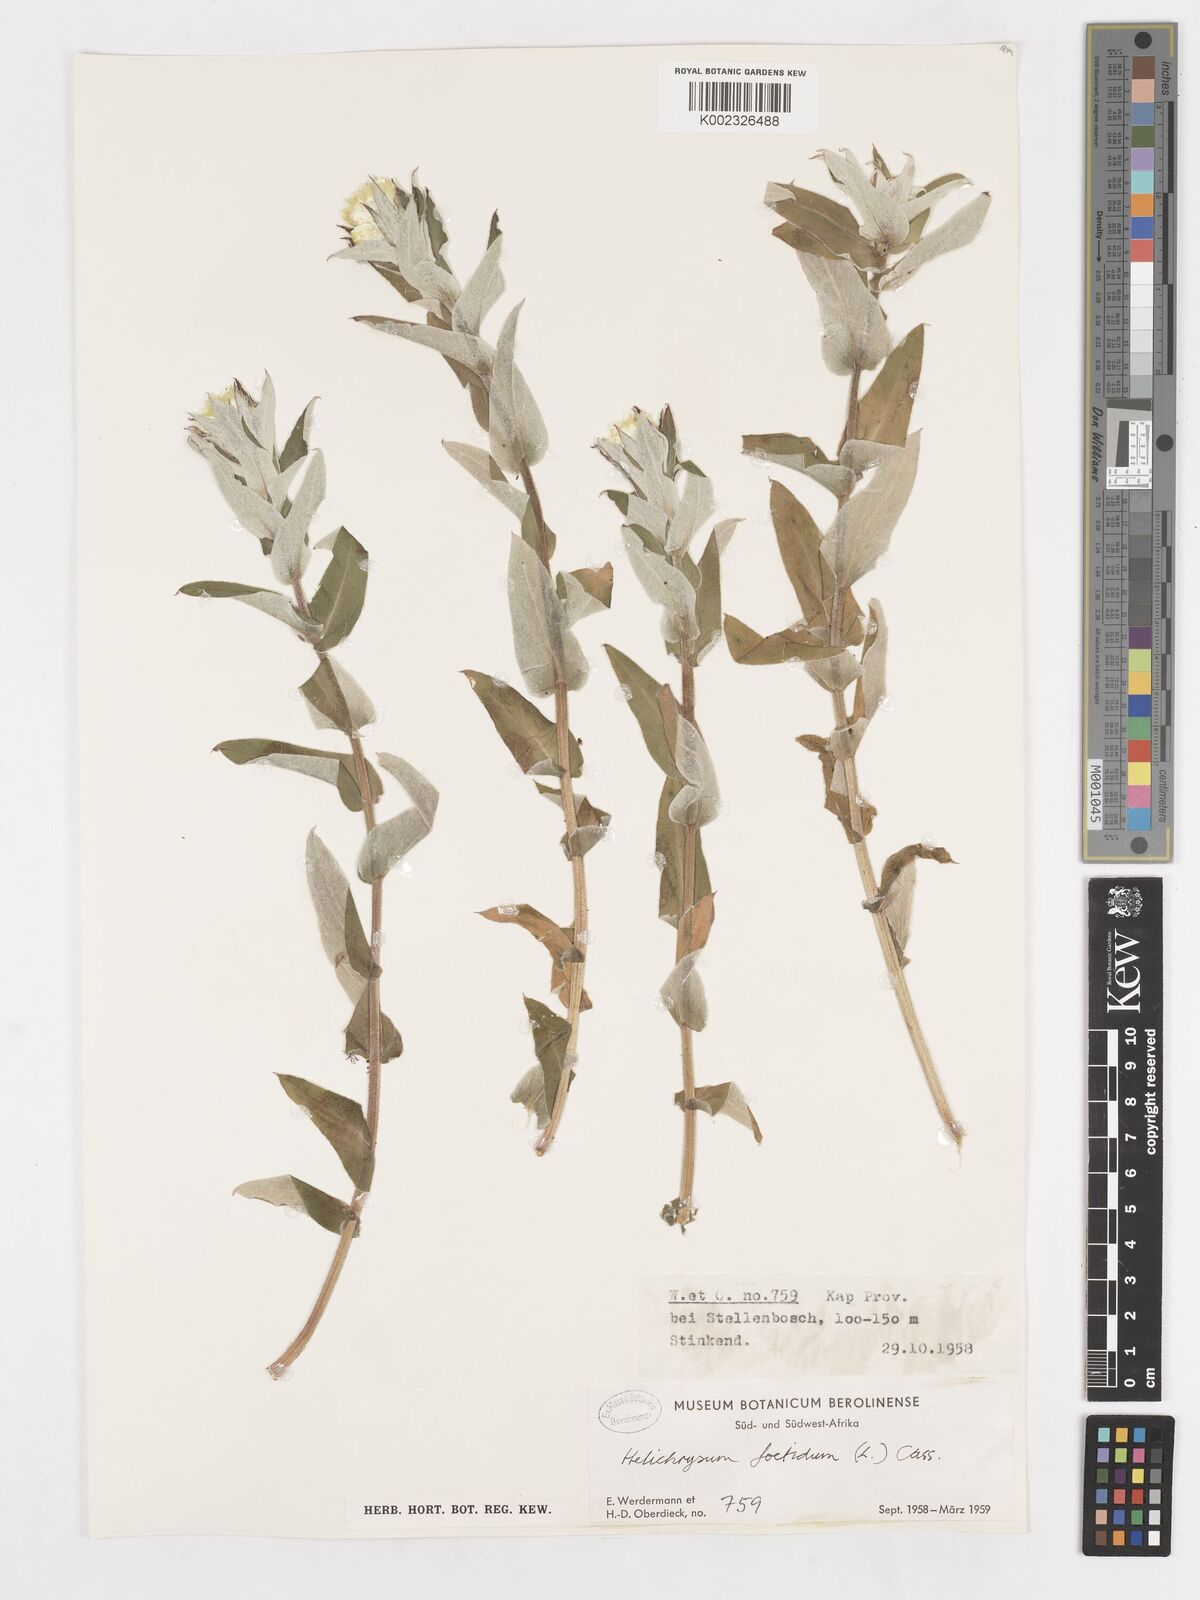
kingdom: Plantae
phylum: Tracheophyta
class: Magnoliopsida
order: Asterales
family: Asteraceae
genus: Helichrysum
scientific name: Helichrysum foetidum
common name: Stinking everlasting
